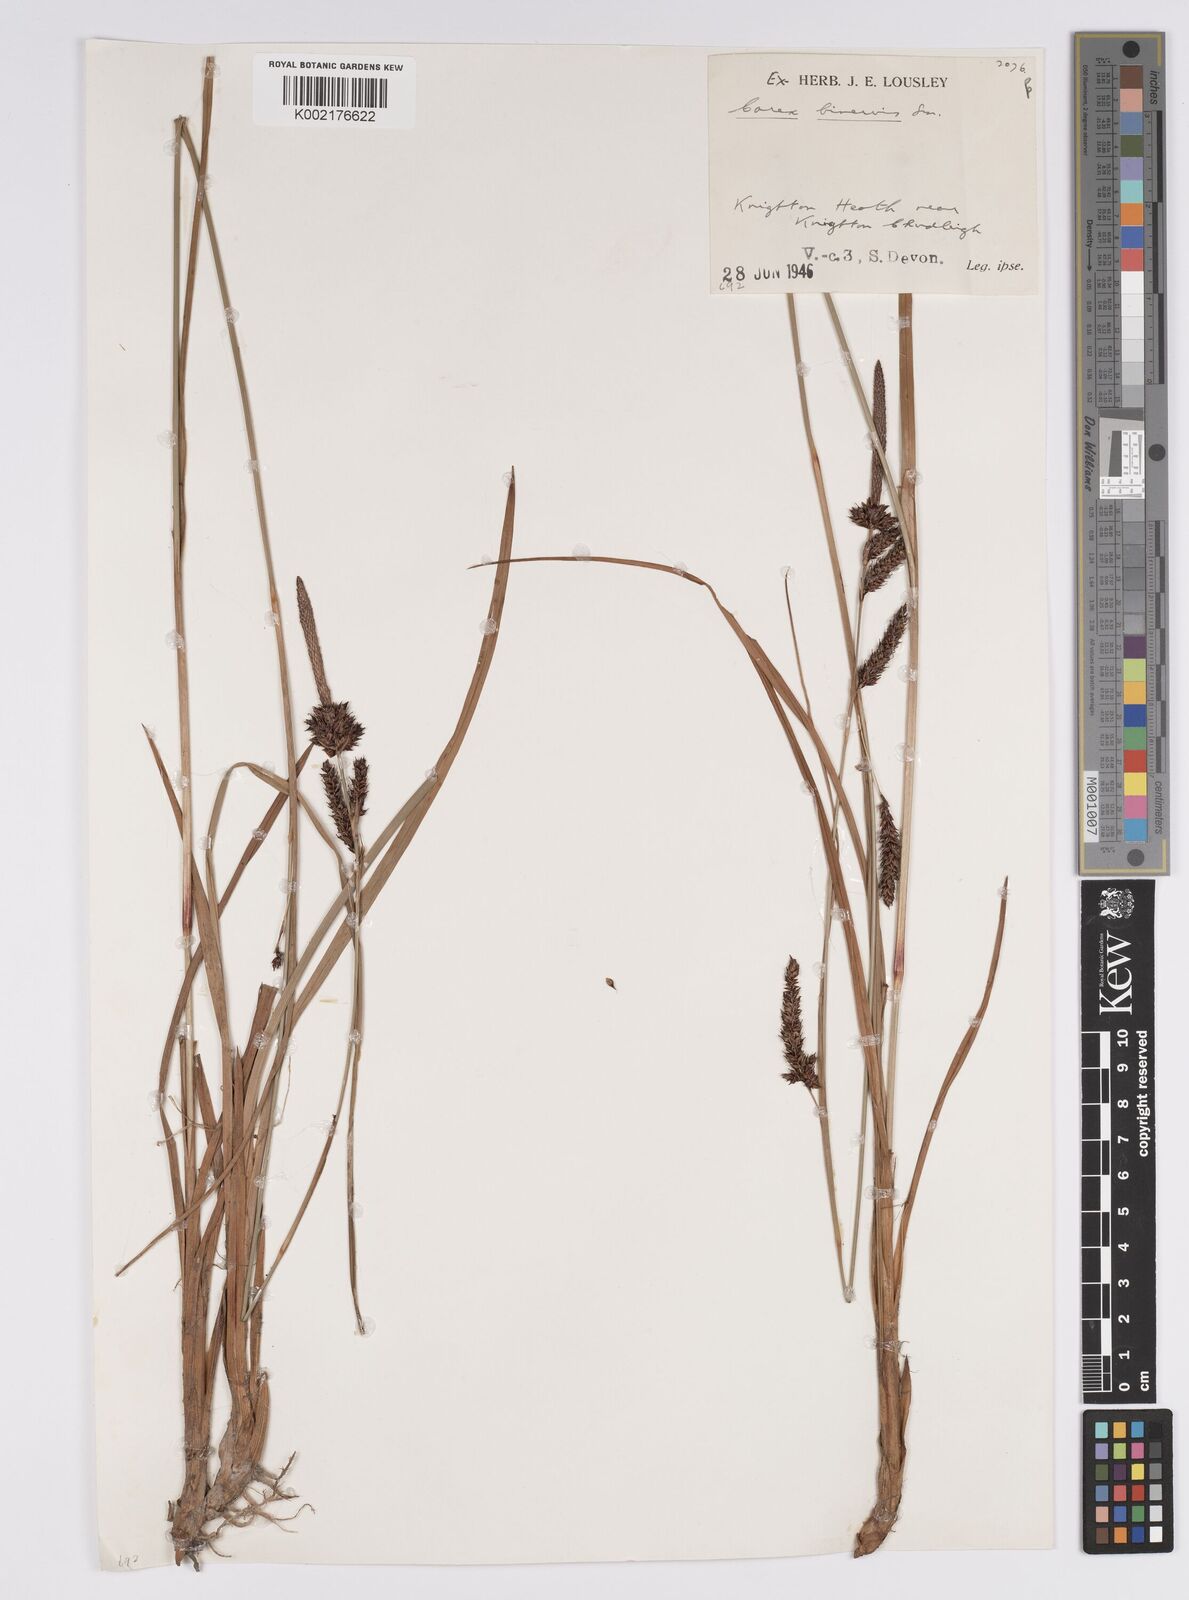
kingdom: Plantae
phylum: Tracheophyta
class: Liliopsida
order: Poales
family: Cyperaceae
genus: Carex
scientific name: Carex binervis
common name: Green-ribbed sedge
